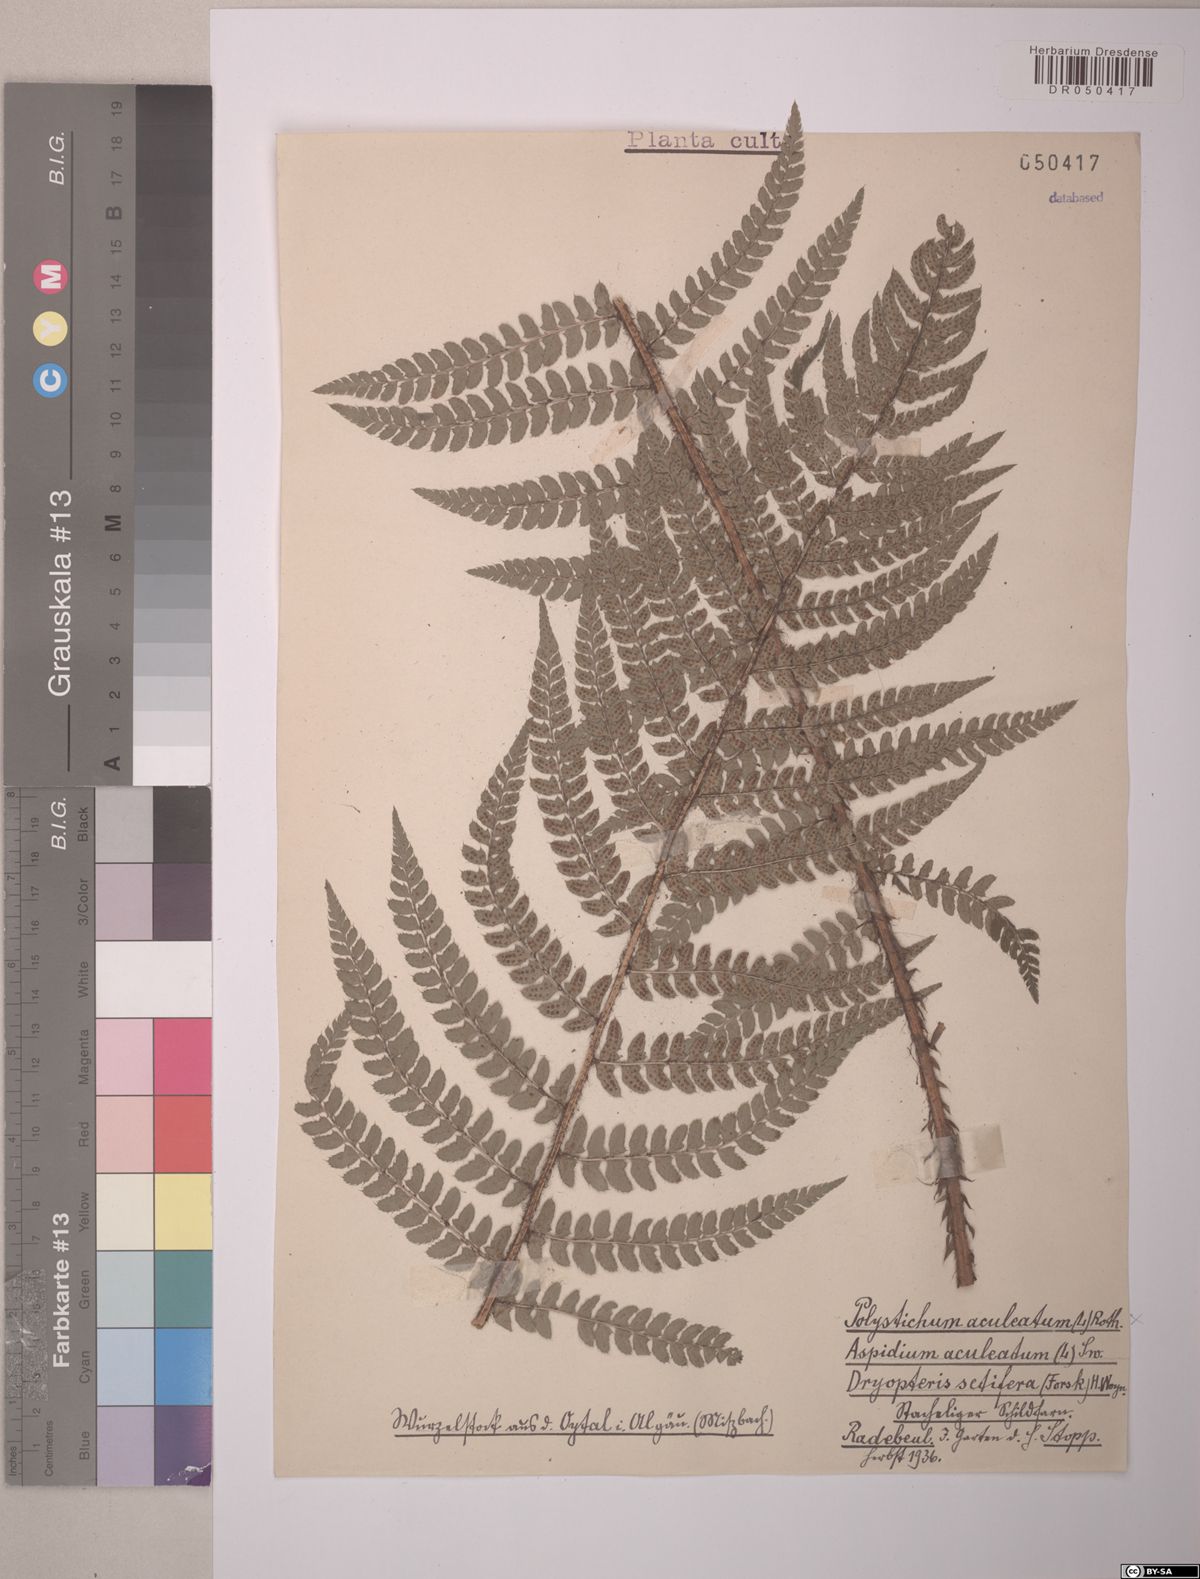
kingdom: Plantae
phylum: Tracheophyta
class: Polypodiopsida
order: Polypodiales
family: Dryopteridaceae
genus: Polystichum
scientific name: Polystichum aculeatum
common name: Hard shield-fern
